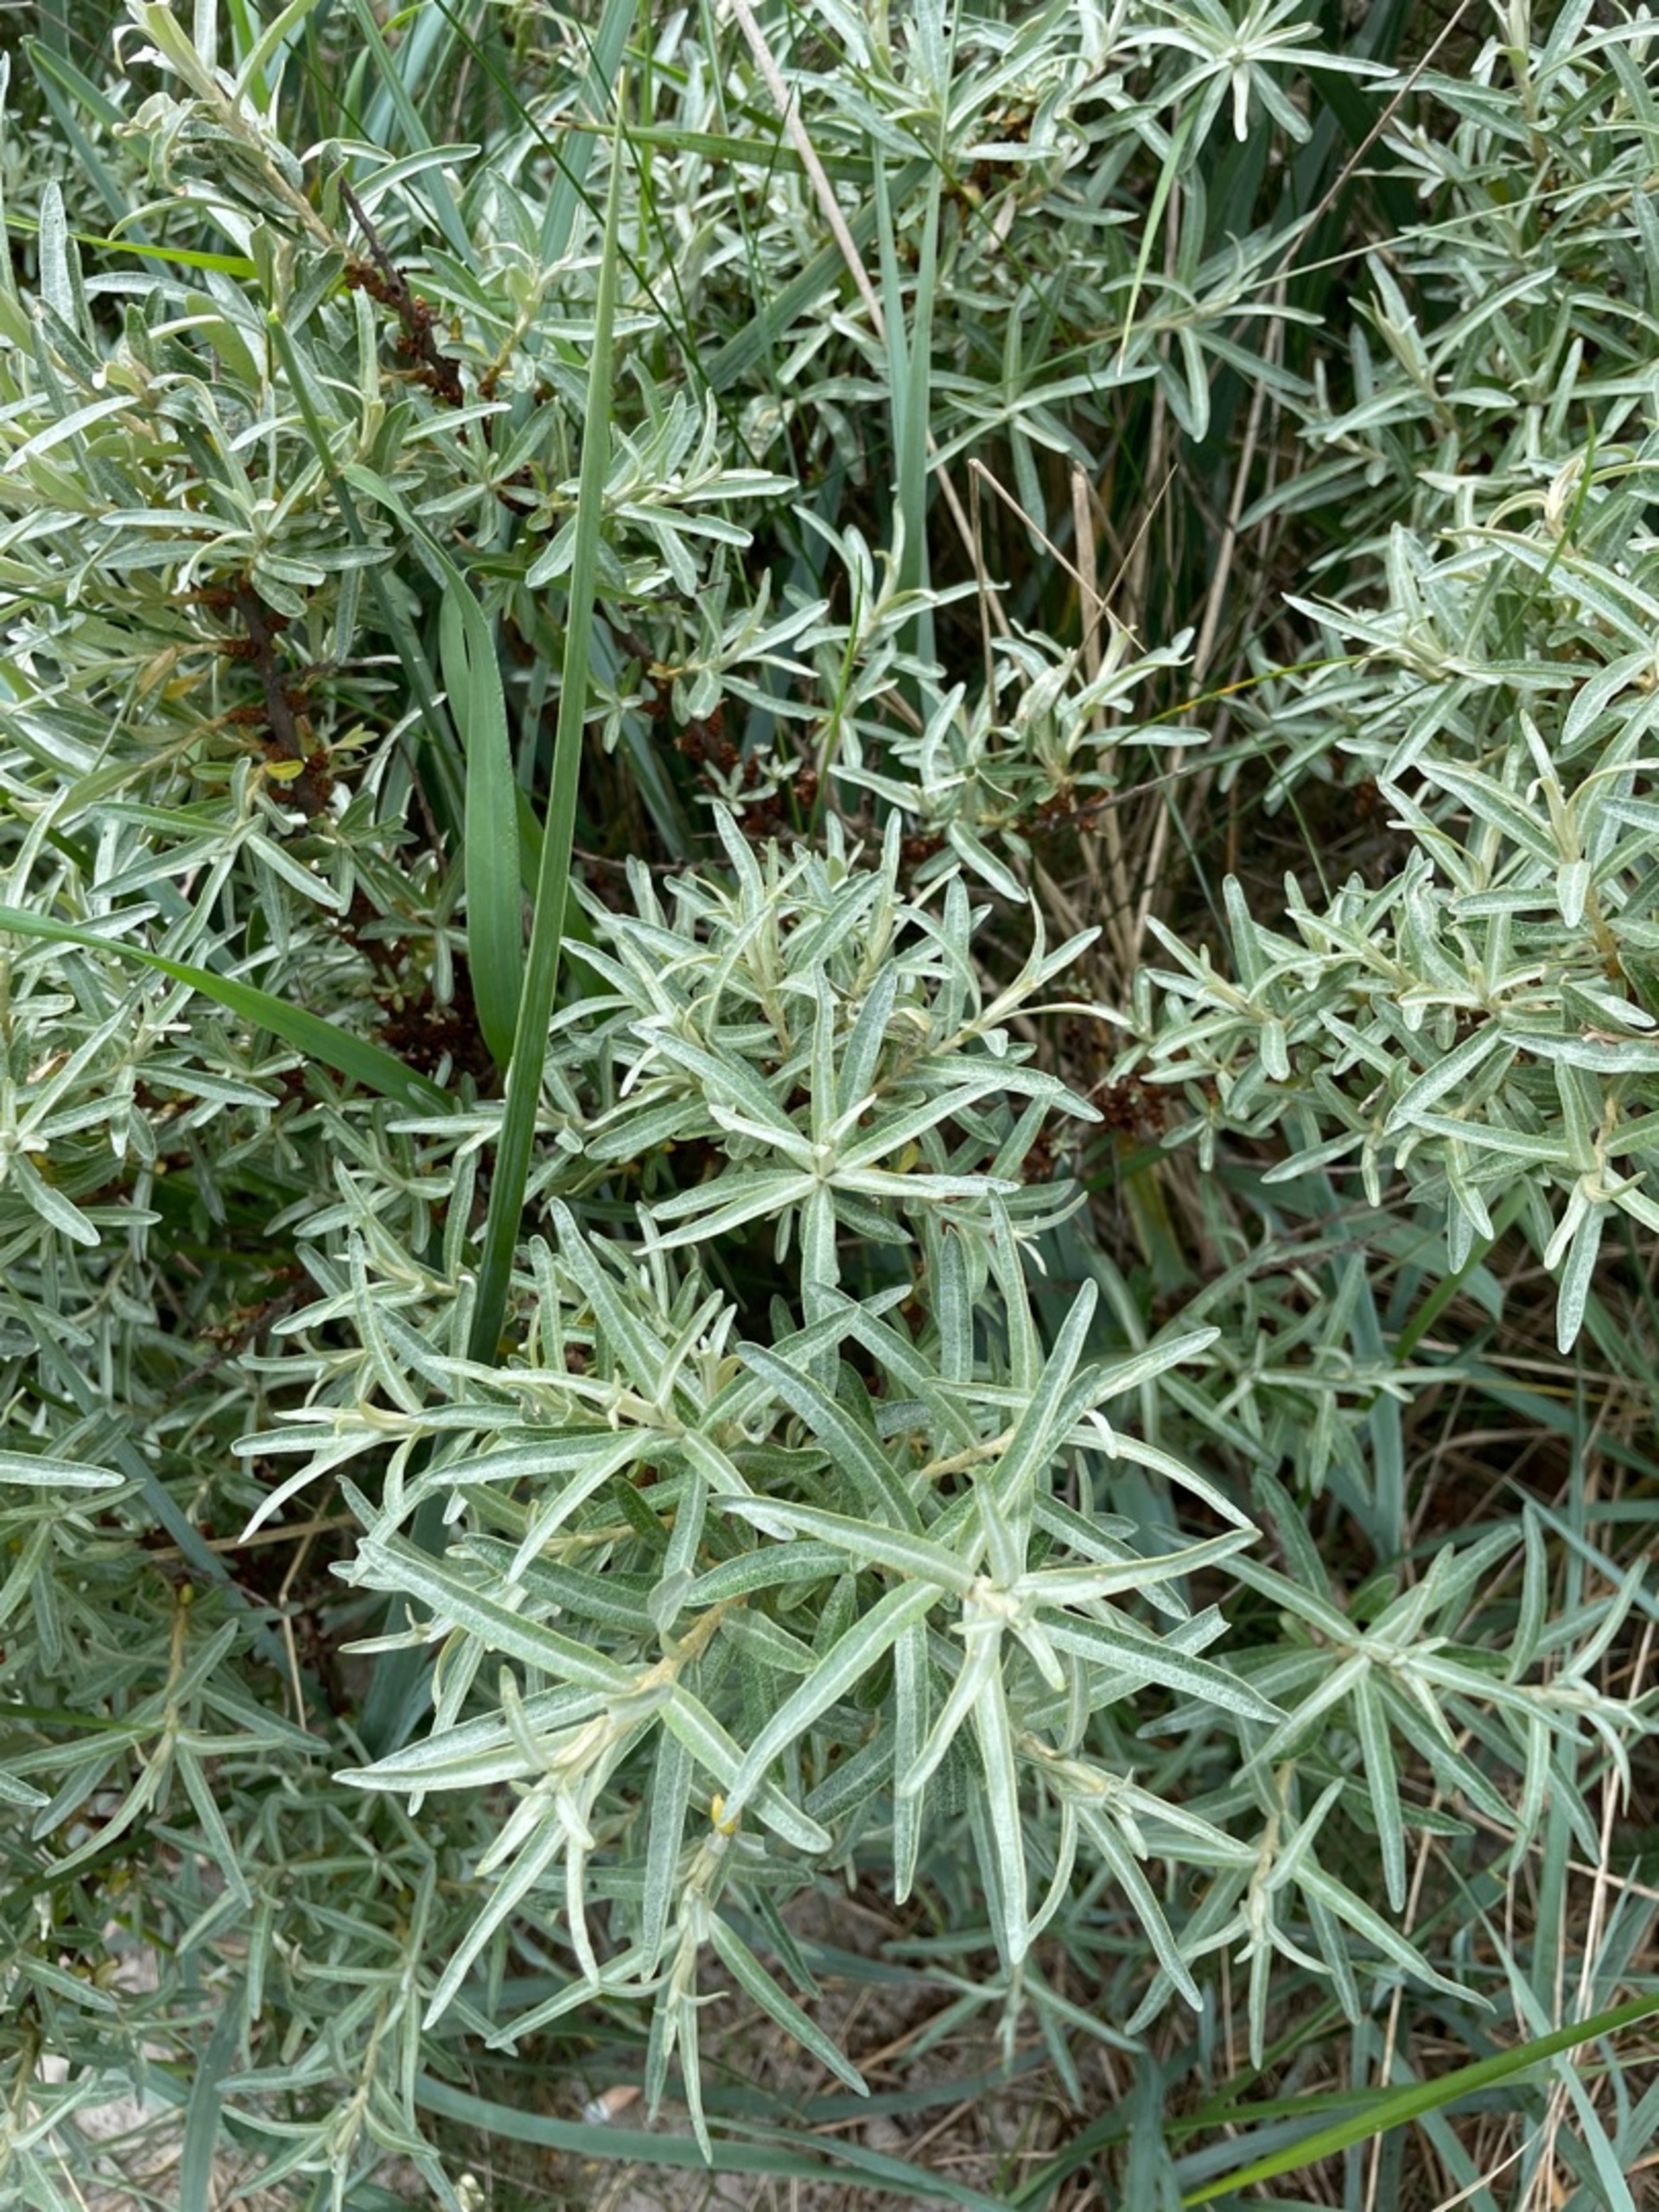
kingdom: Plantae
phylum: Tracheophyta
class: Magnoliopsida
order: Rosales
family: Elaeagnaceae
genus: Hippophae
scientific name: Hippophae rhamnoides
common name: Havtorn
